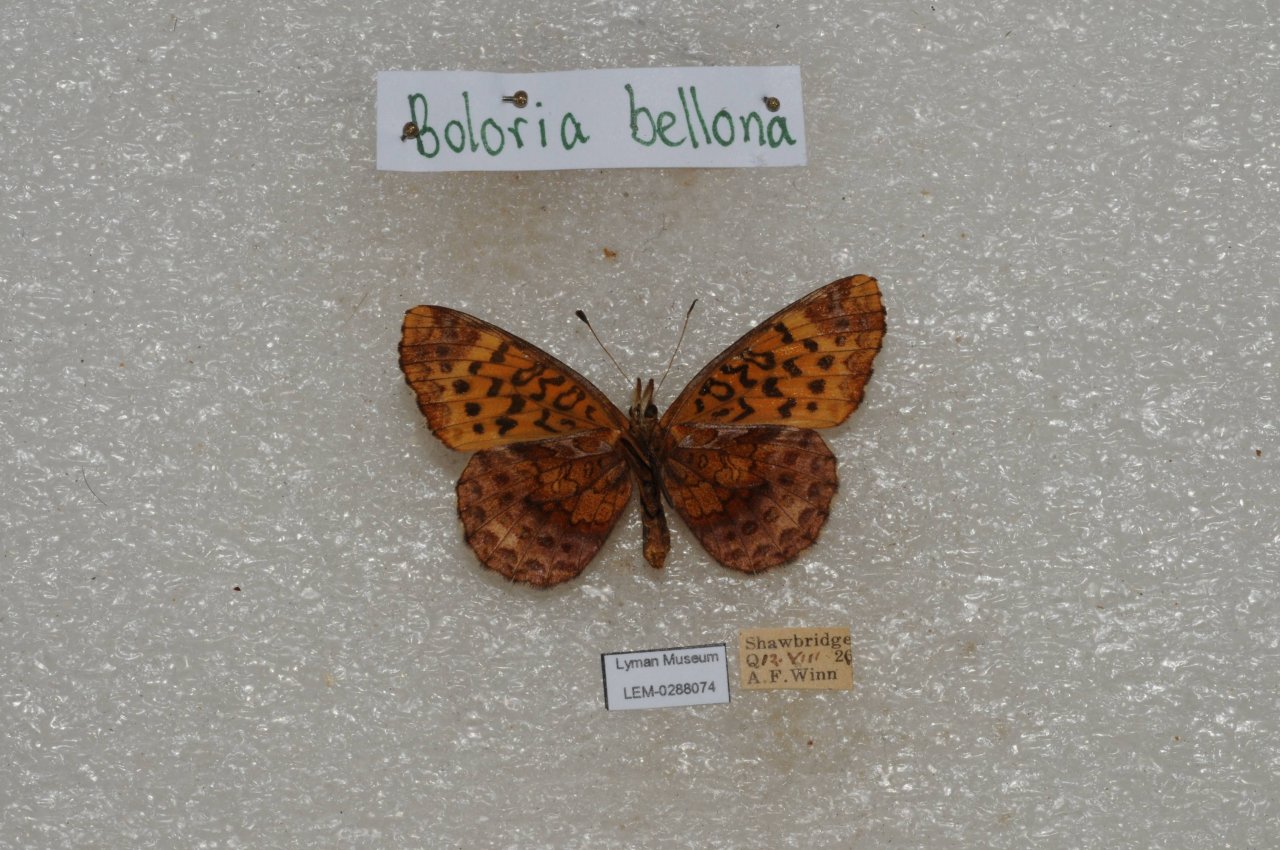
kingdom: Animalia
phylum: Arthropoda
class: Insecta
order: Lepidoptera
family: Nymphalidae
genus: Clossiana
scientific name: Clossiana toddi
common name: Meadow Fritillary
